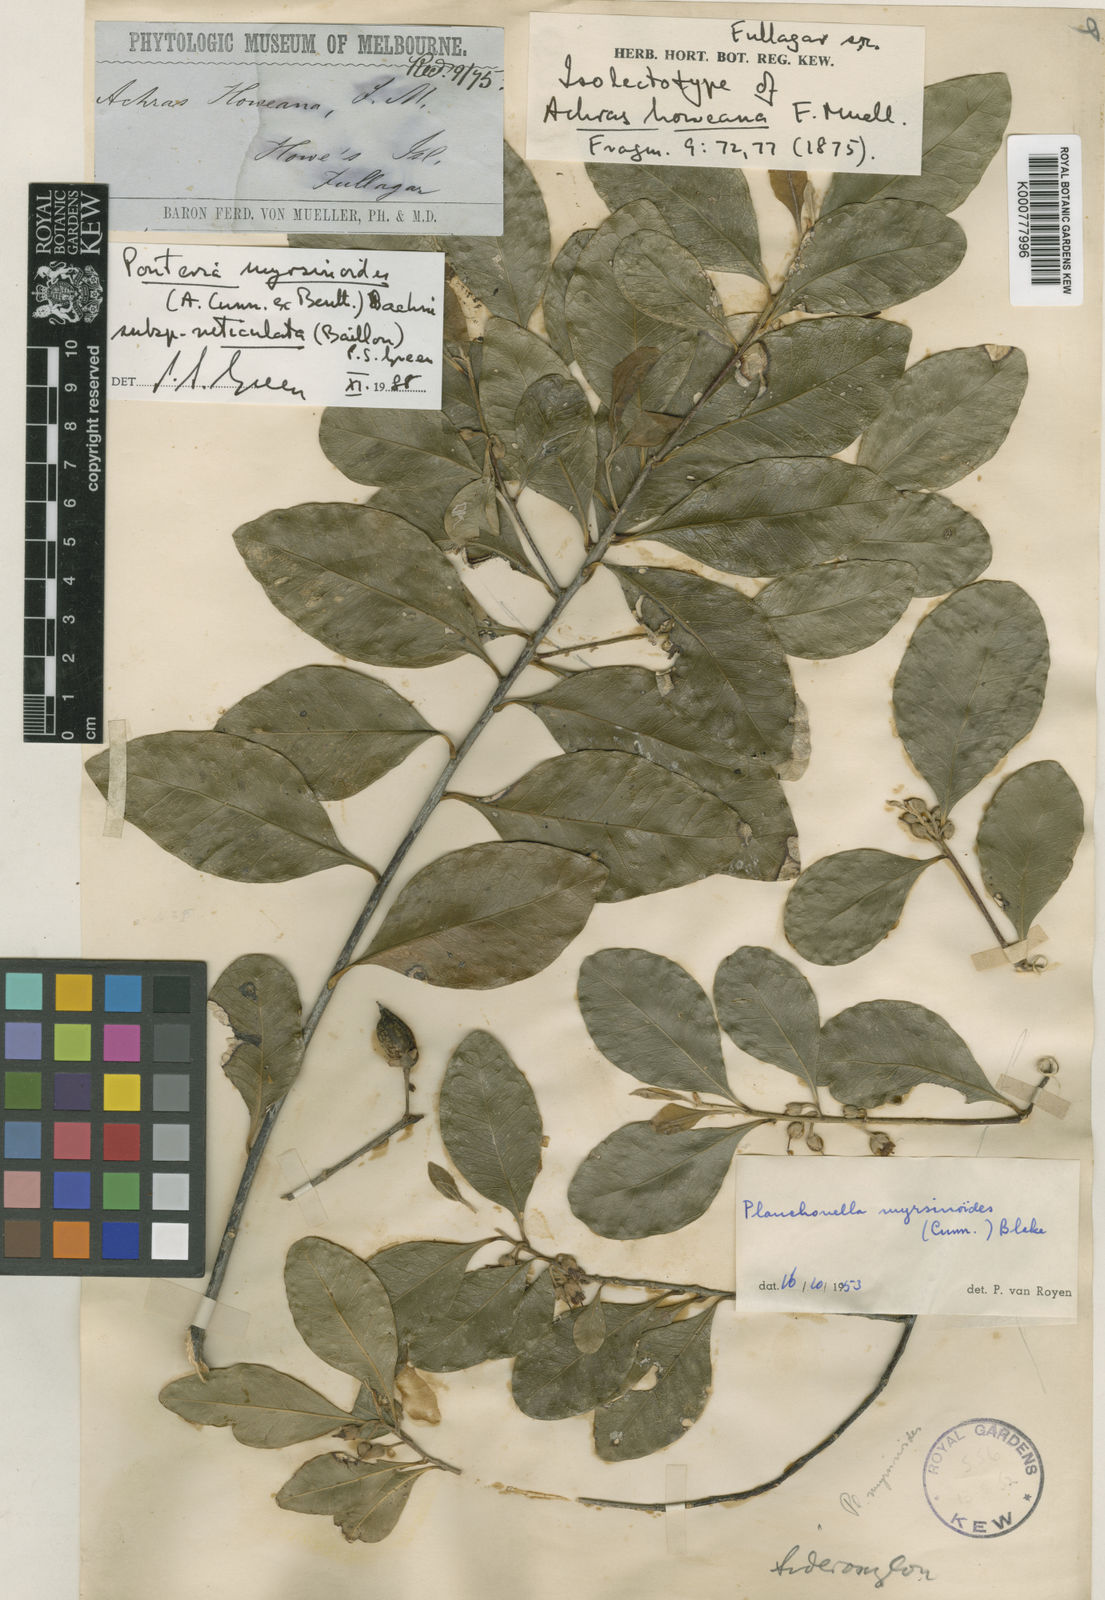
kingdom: Plantae
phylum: Tracheophyta
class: Magnoliopsida
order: Ericales
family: Sapotaceae
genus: Planchonella
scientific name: Planchonella myrsinoides
